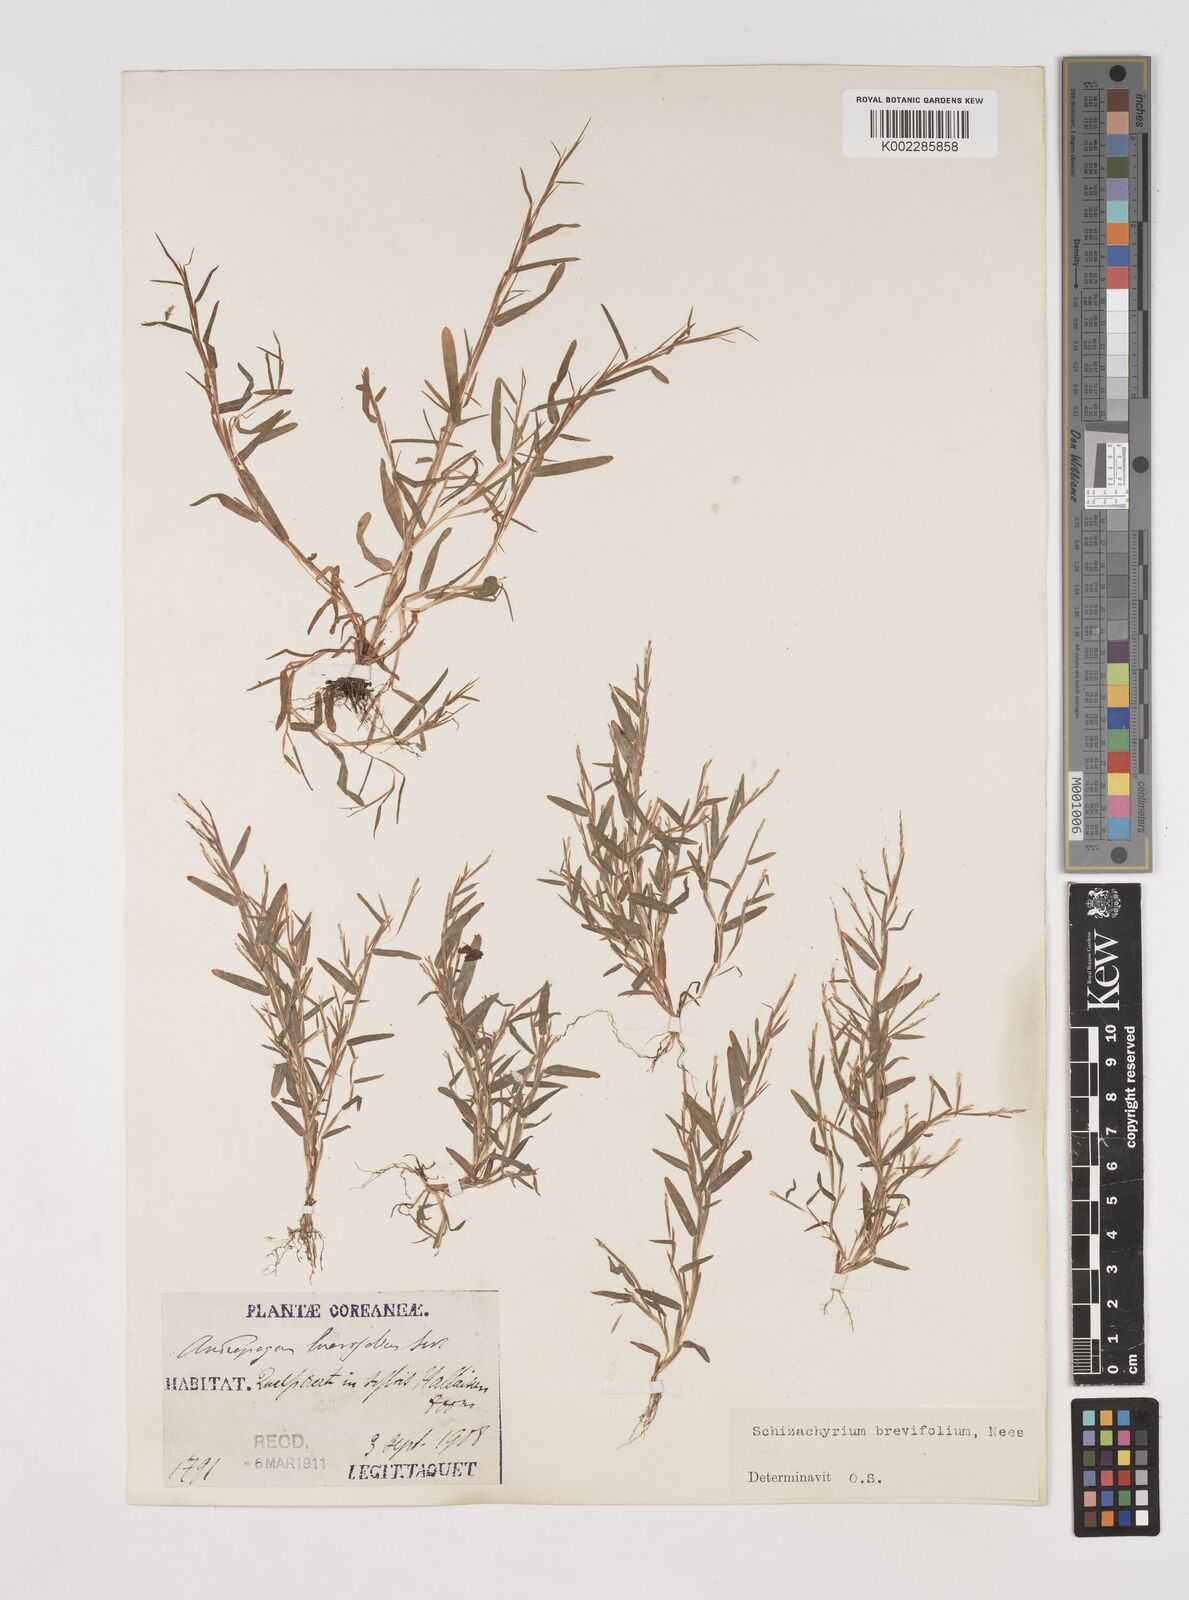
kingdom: Plantae
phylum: Tracheophyta
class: Liliopsida
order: Poales
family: Poaceae
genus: Schizachyrium
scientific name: Schizachyrium brevifolium
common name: Serillo dulce
